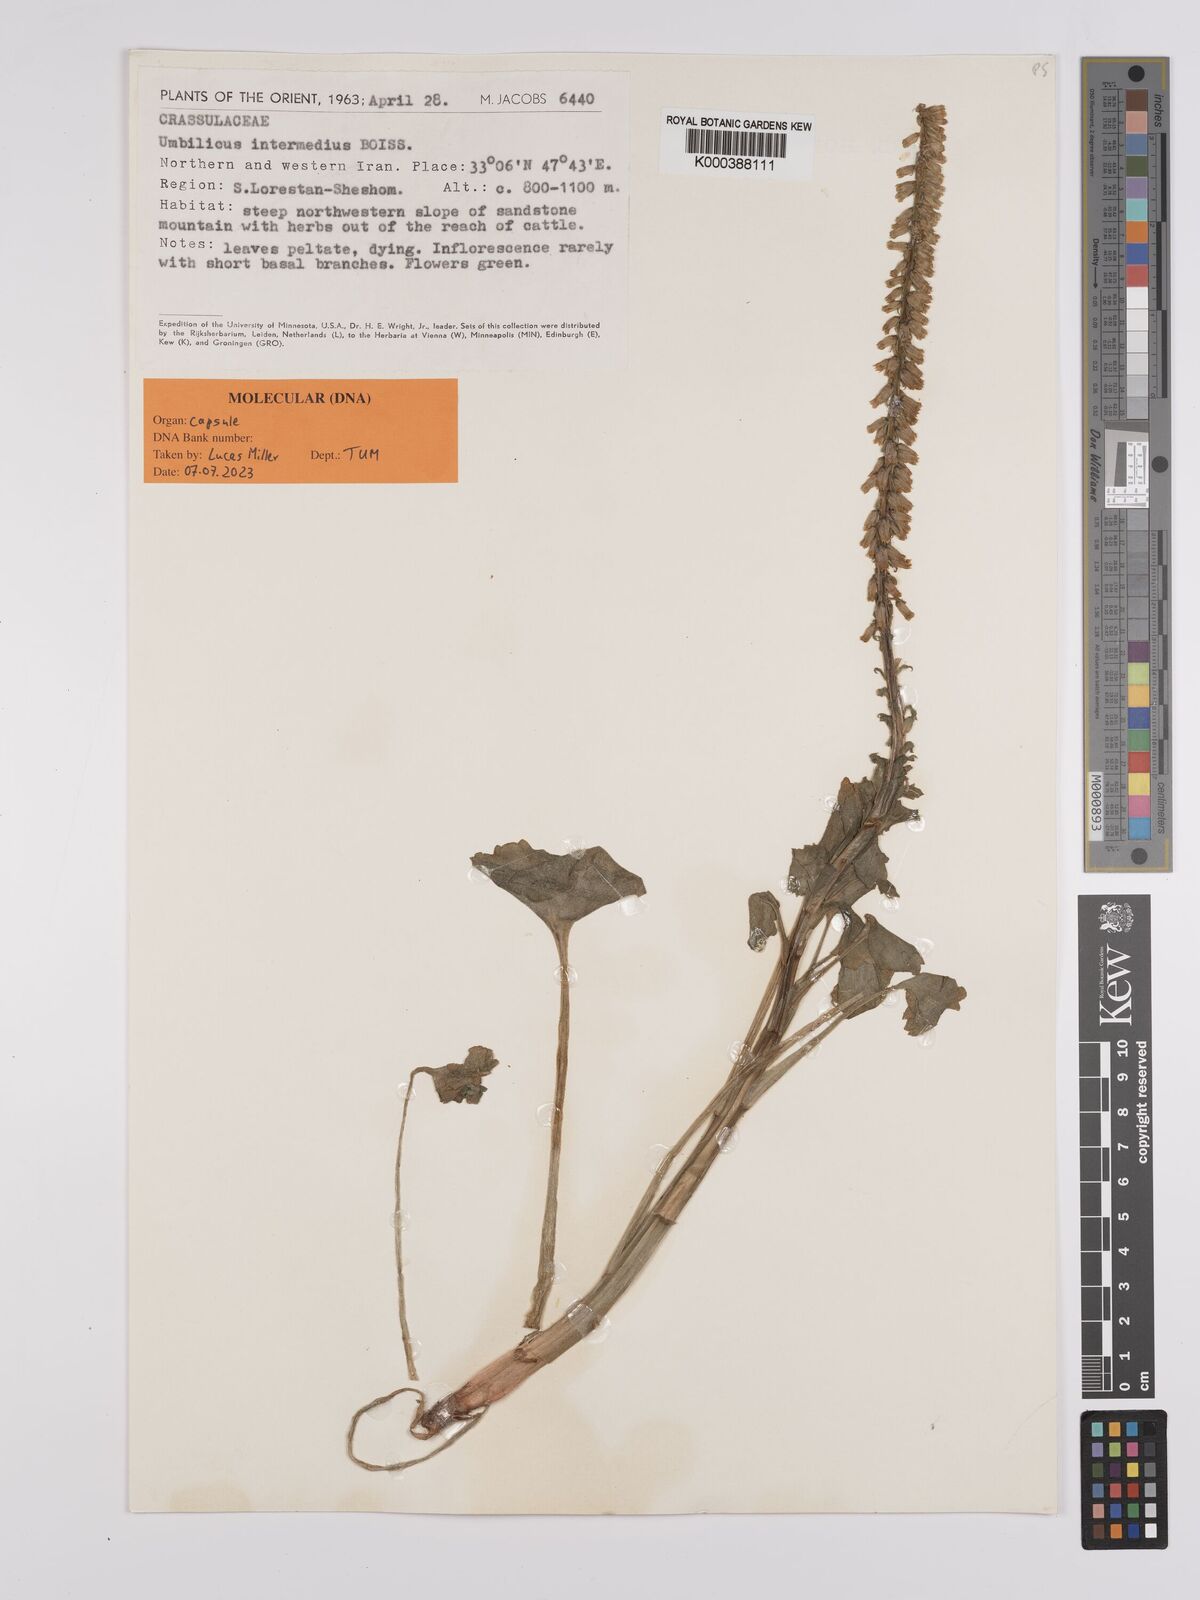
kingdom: Plantae
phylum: Tracheophyta
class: Magnoliopsida
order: Saxifragales
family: Crassulaceae
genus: Umbilicus
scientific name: Umbilicus horizontalis
